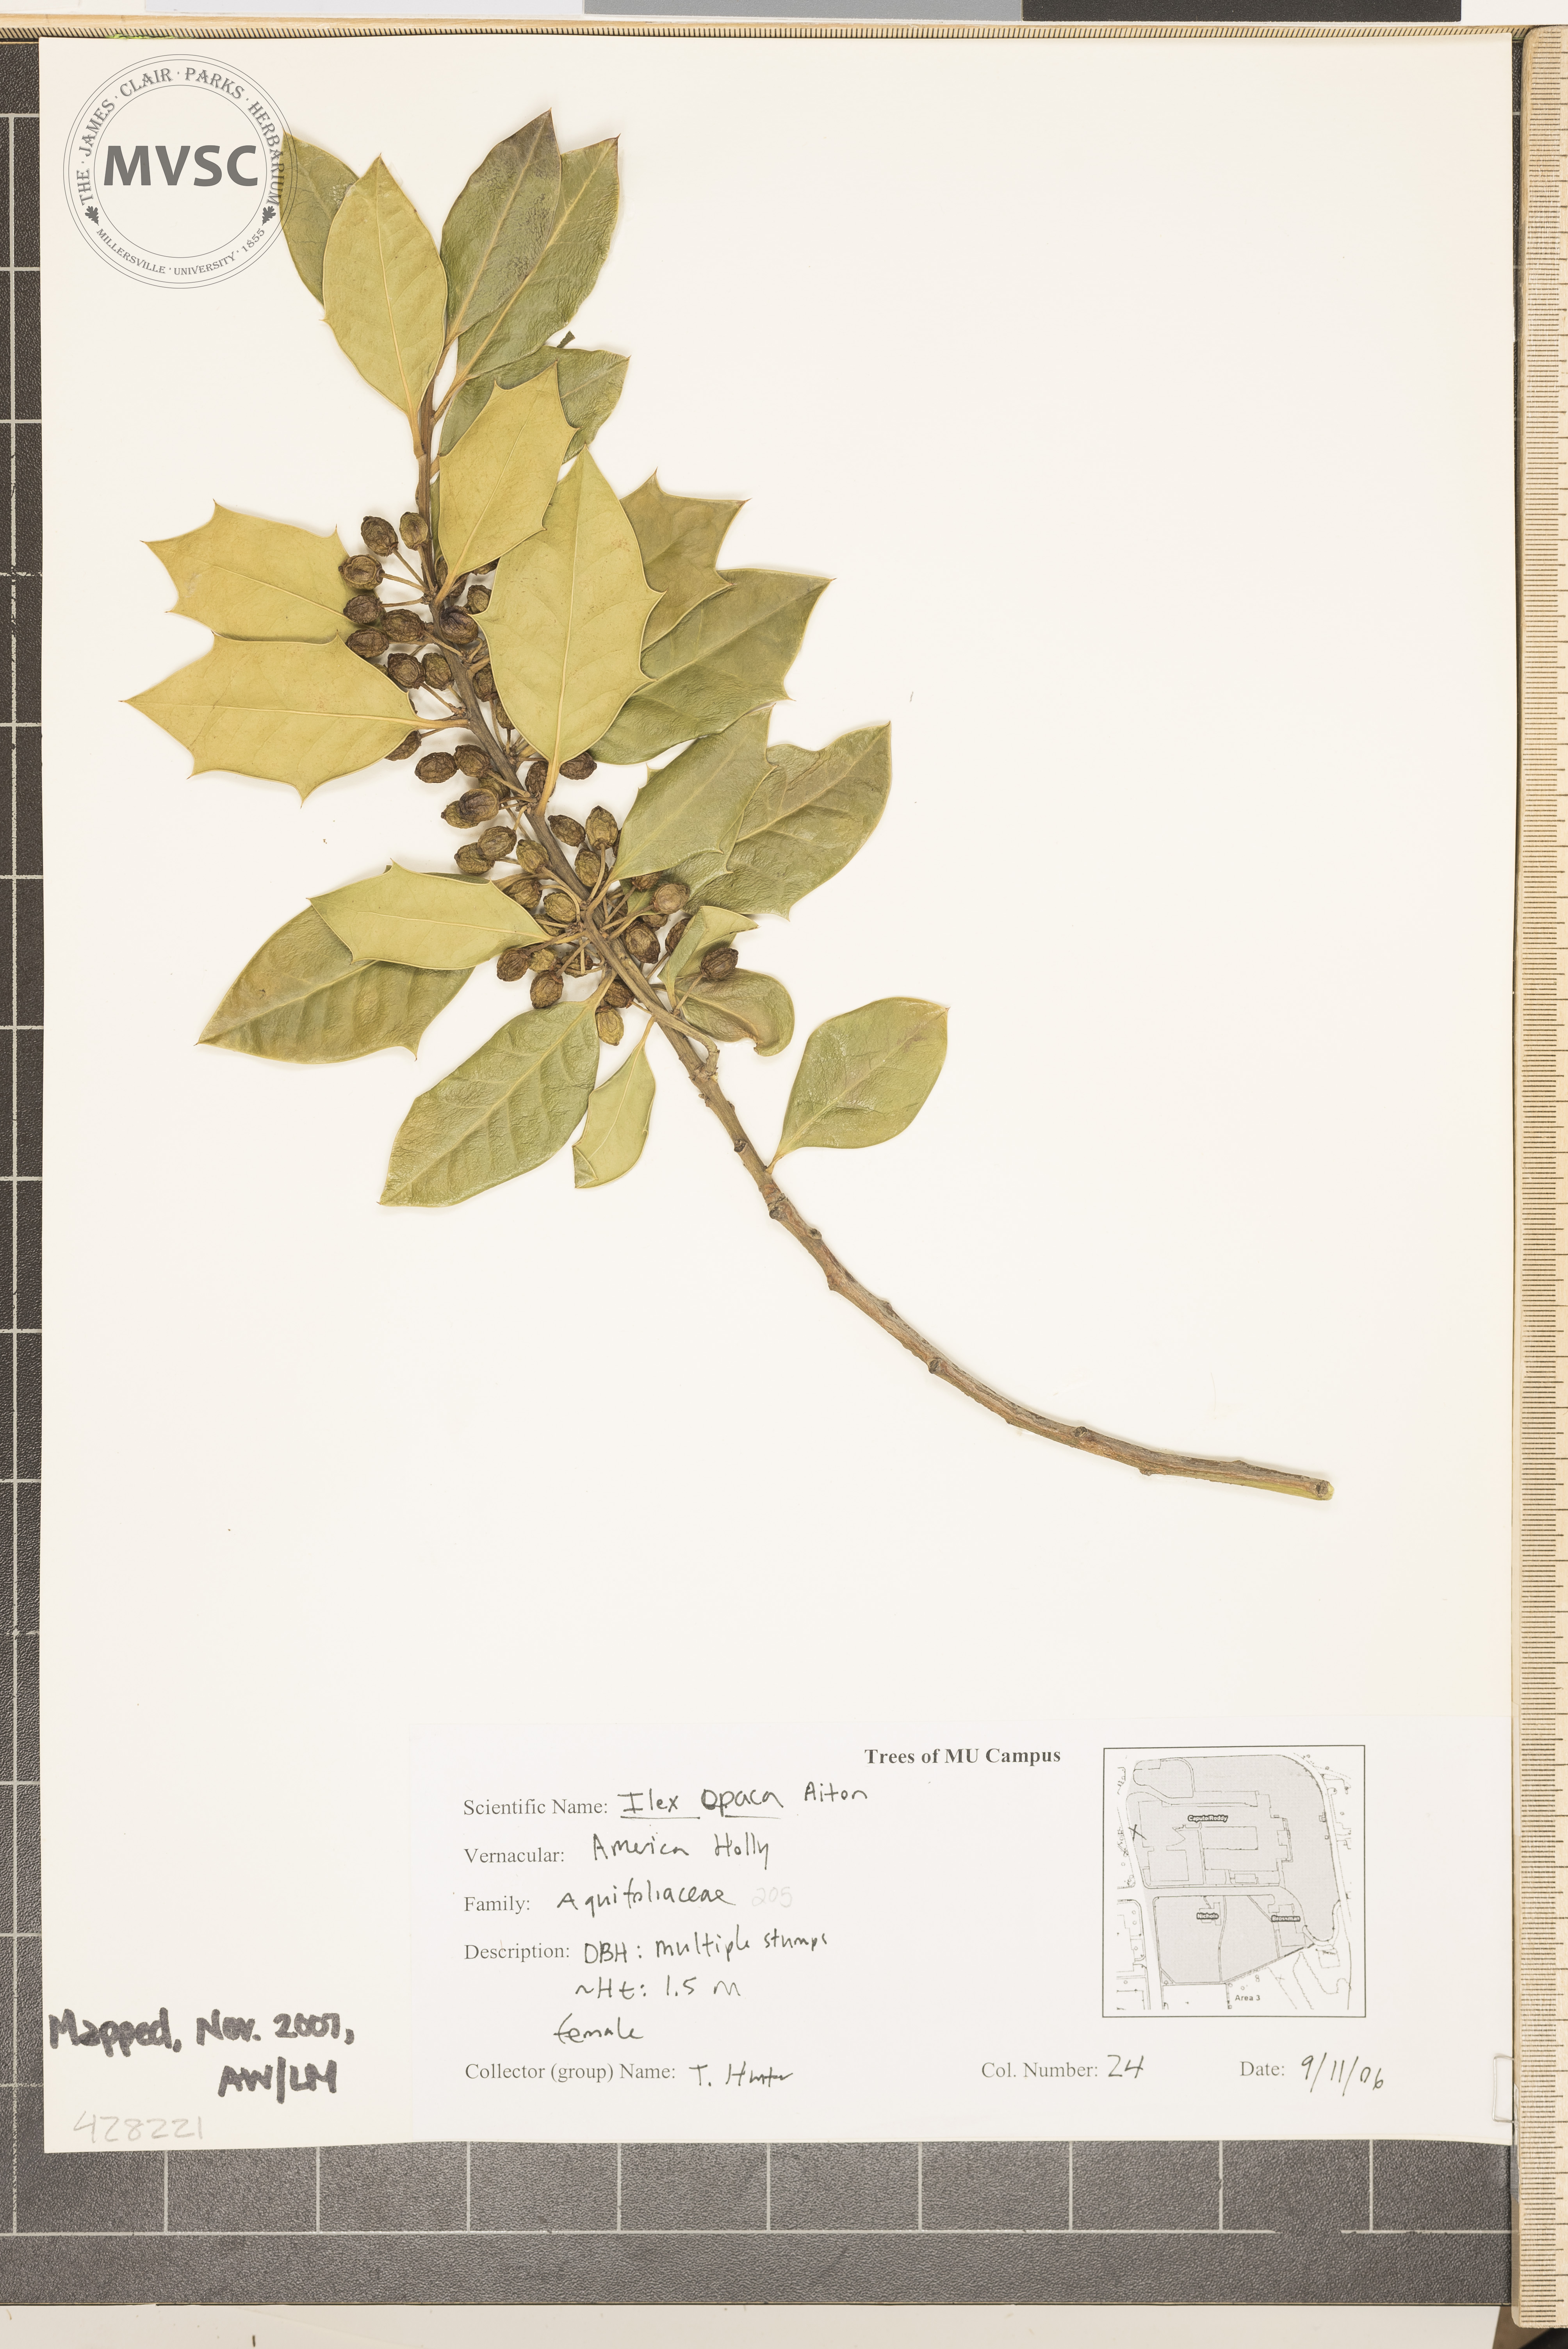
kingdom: Plantae
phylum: Tracheophyta
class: Magnoliopsida
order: Aquifoliales
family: Aquifoliaceae
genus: Ilex
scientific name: Ilex opaca
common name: American Holly
